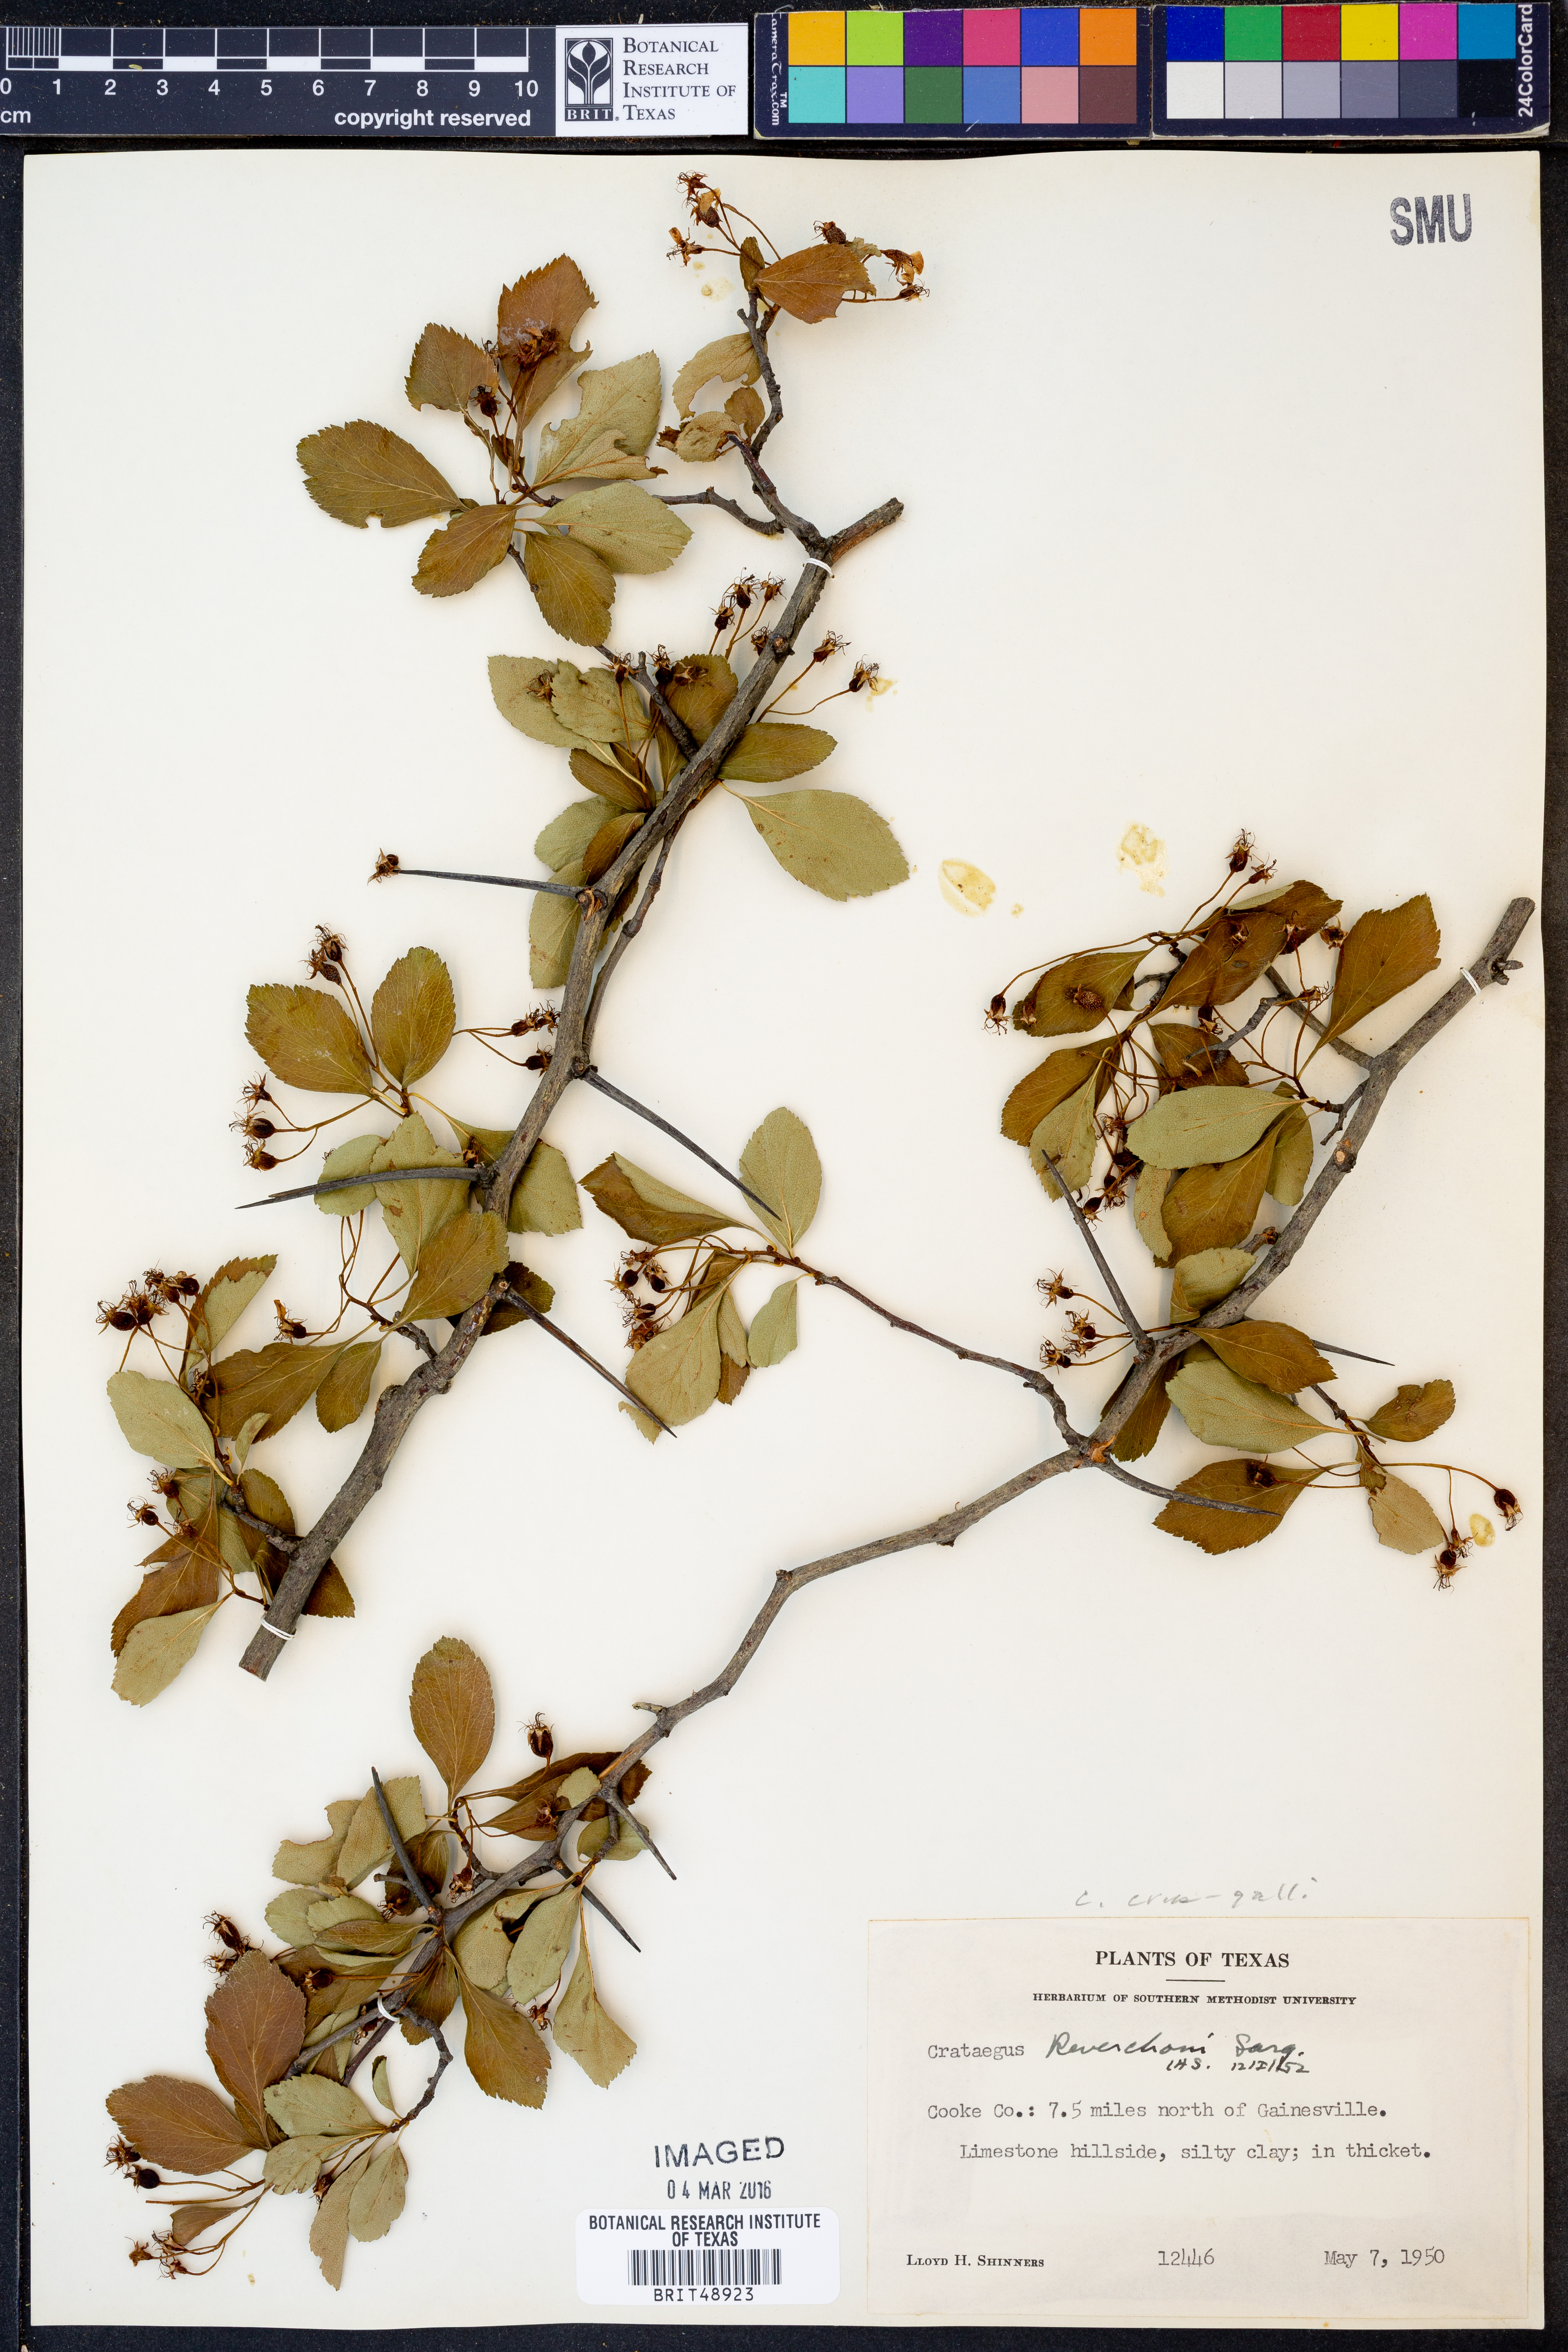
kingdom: Plantae
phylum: Tracheophyta
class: Magnoliopsida
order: Rosales
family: Rosaceae
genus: Crataegus
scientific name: Crataegus crus-galli
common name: Cockspurthorn
